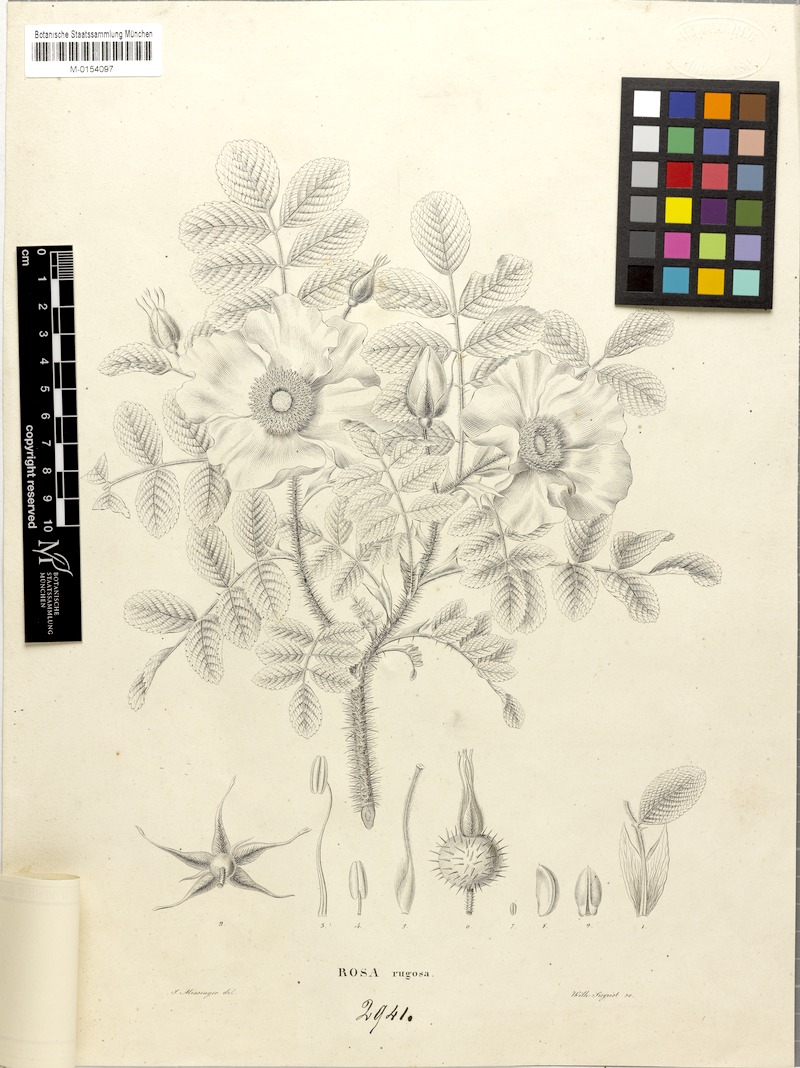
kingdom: Plantae
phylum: Tracheophyta
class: Magnoliopsida
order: Rosales
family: Rosaceae
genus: Rosa
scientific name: Rosa rugosa
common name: Japanese rose
